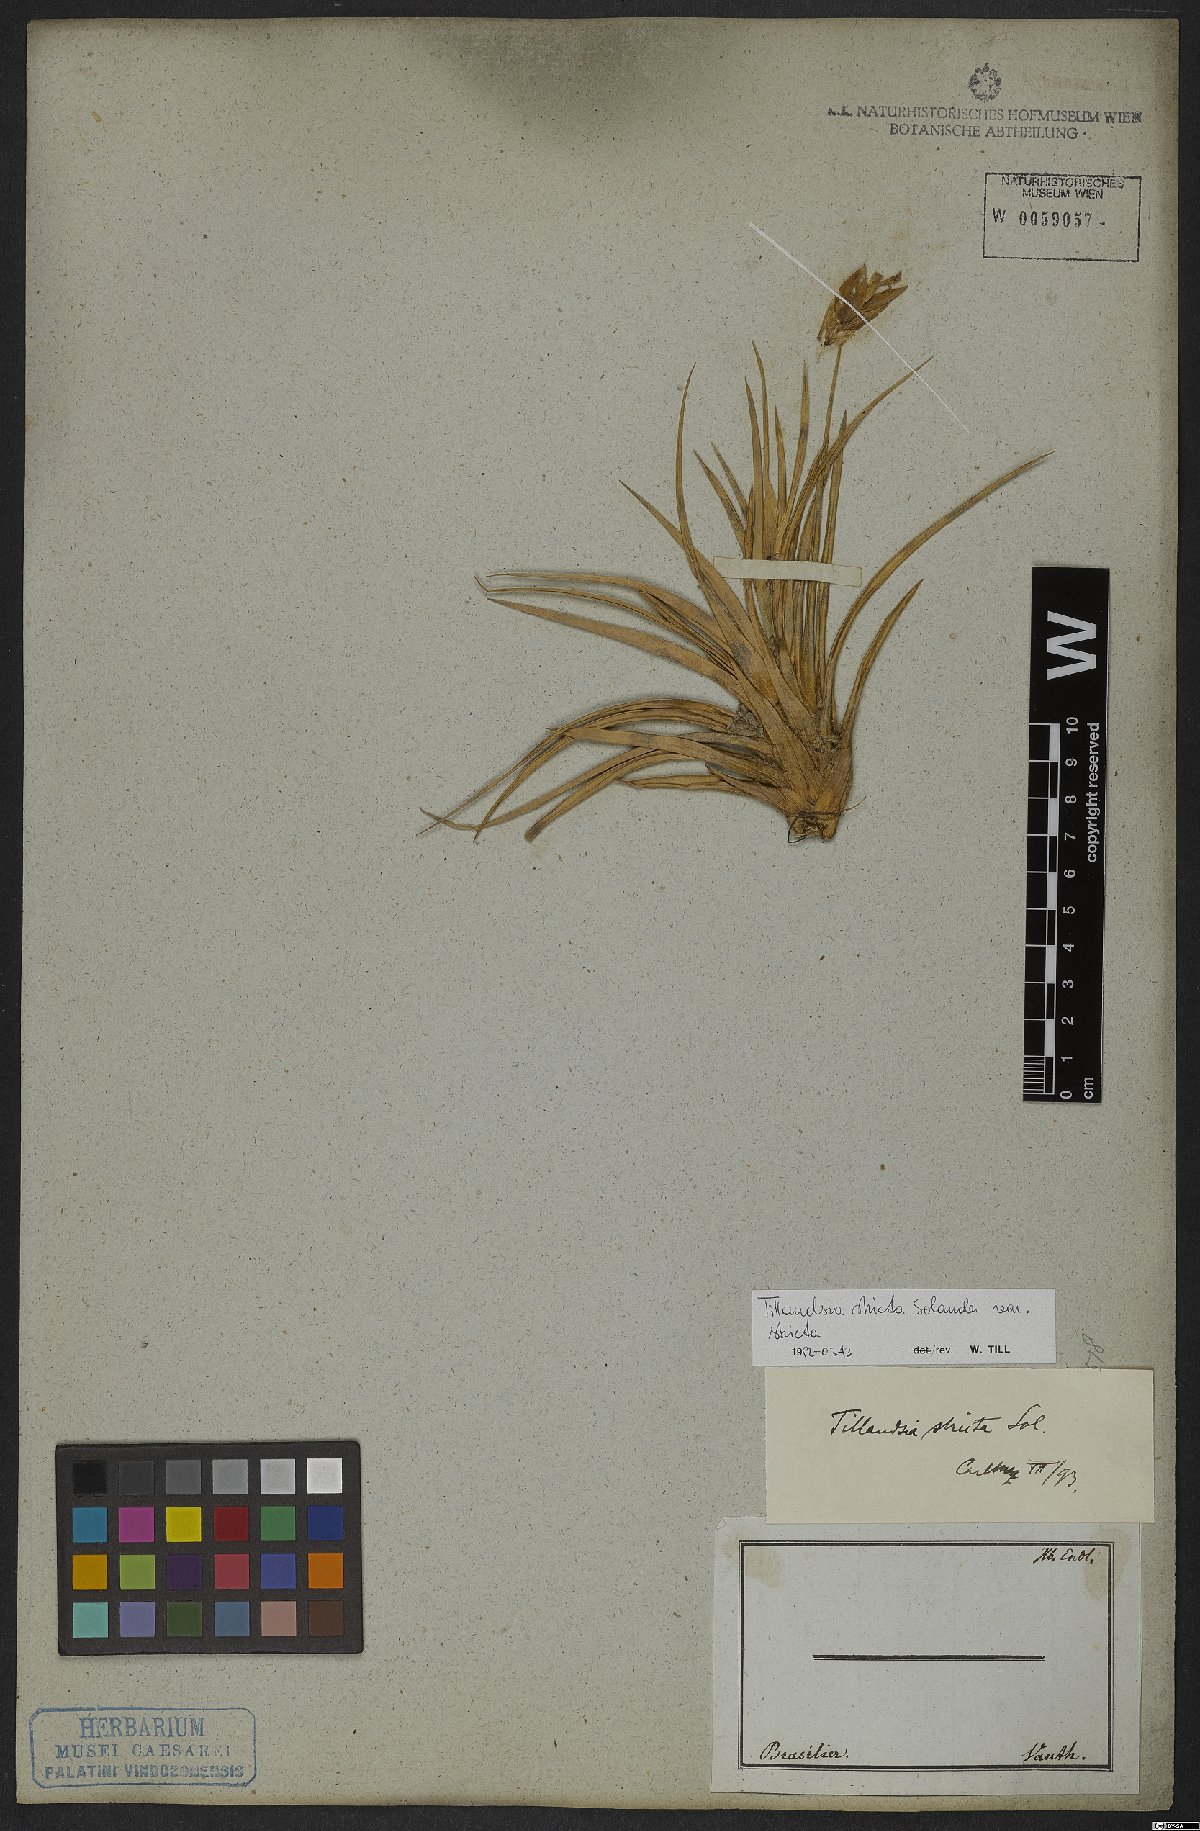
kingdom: Plantae
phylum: Tracheophyta
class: Liliopsida
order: Poales
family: Bromeliaceae
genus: Tillandsia
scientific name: Tillandsia stricta
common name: Airplant
